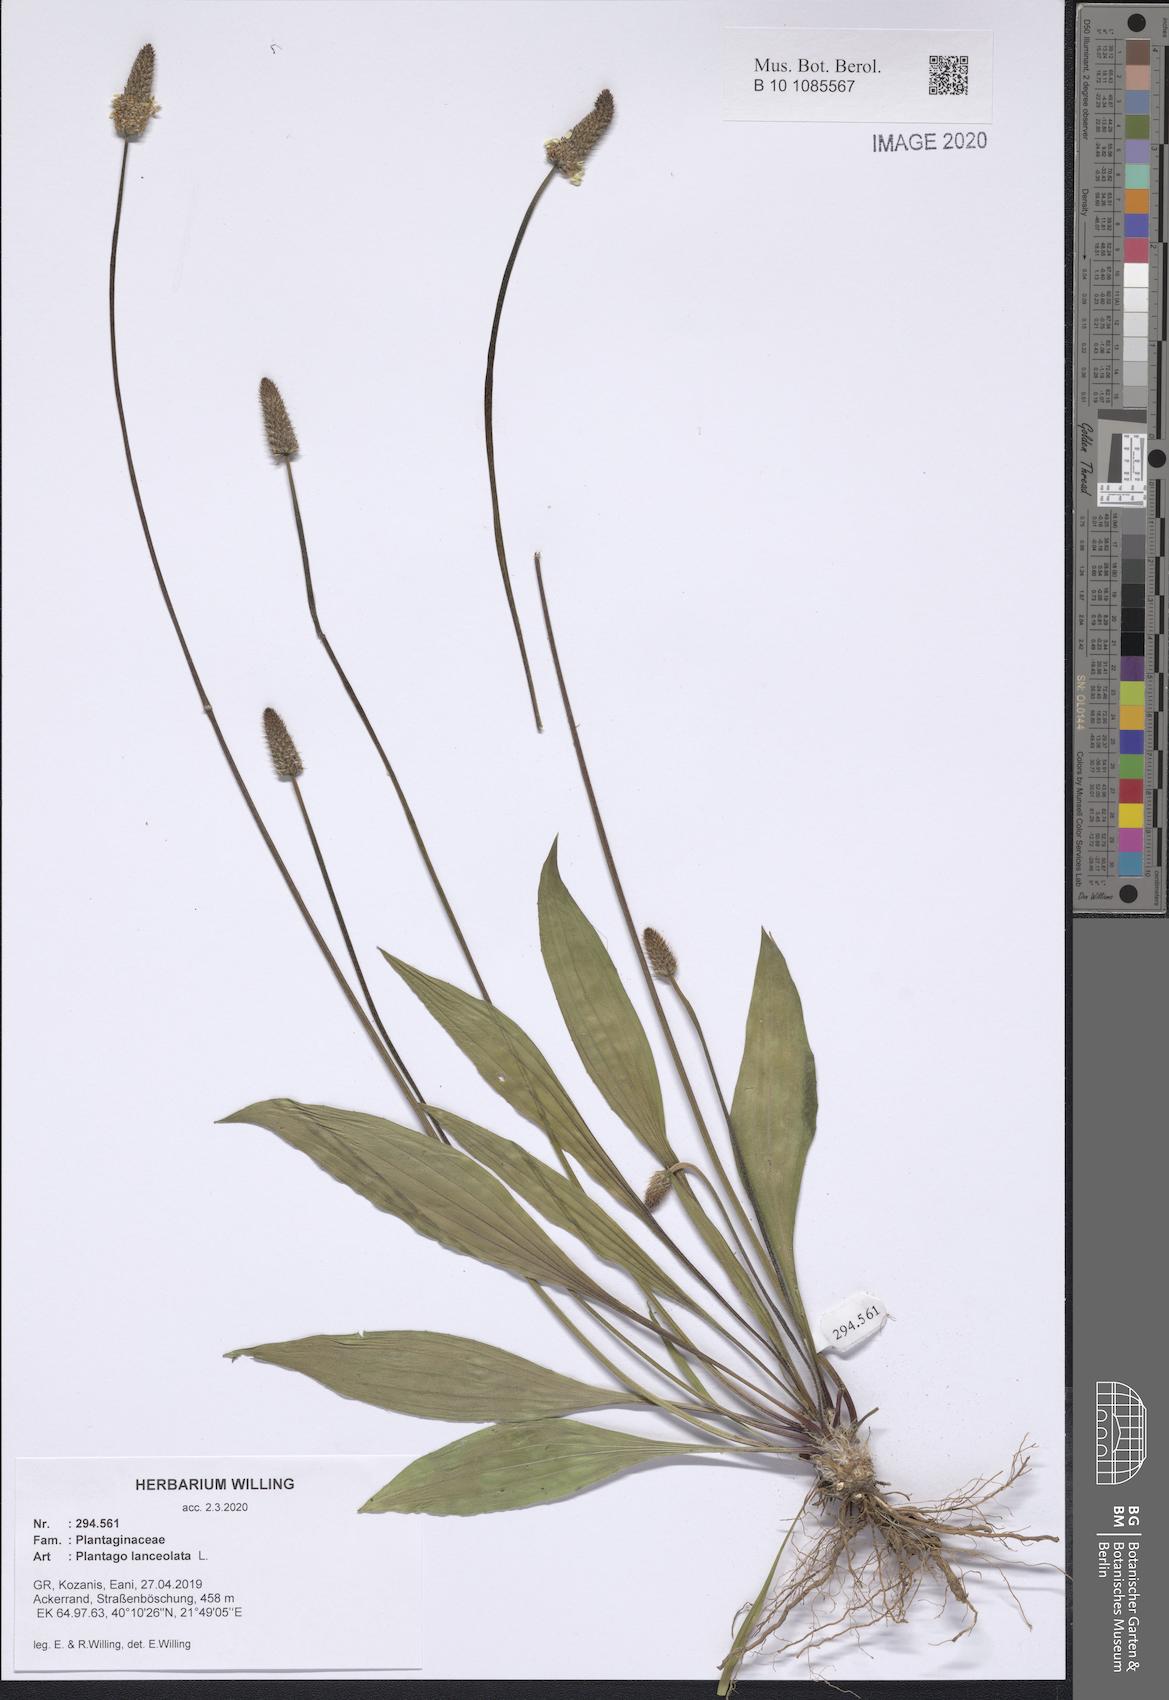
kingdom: Plantae
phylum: Tracheophyta
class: Magnoliopsida
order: Lamiales
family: Plantaginaceae
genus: Plantago
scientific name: Plantago lanceolata
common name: Ribwort plantain
